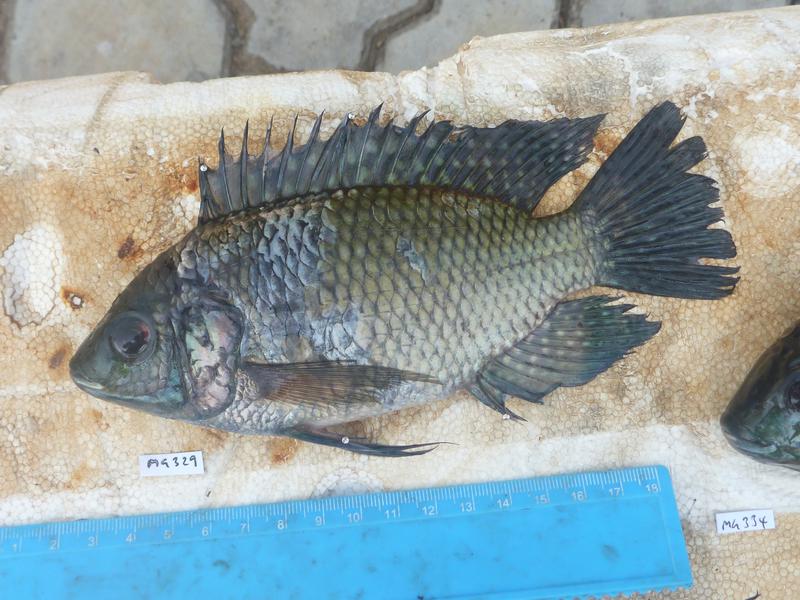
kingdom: Animalia
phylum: Chordata
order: Perciformes
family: Cichlidae
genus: Oreochromis
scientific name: Oreochromis leucostictus
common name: Blue spotted tilapia
